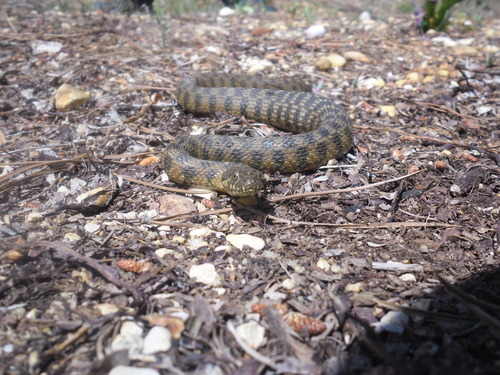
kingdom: Animalia
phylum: Chordata
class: Squamata
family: Colubridae
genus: Natrix
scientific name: Natrix maura
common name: Viperine water snake
